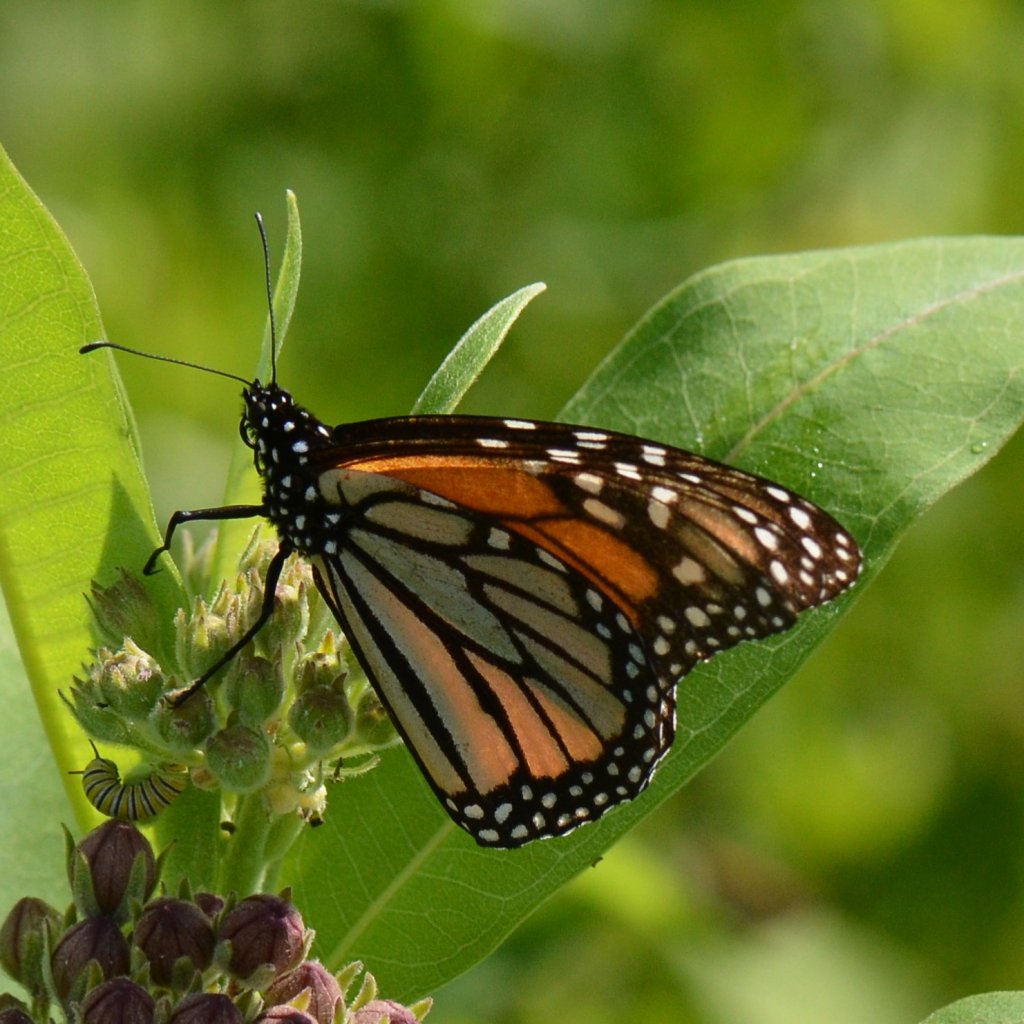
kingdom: Animalia
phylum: Arthropoda
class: Insecta
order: Lepidoptera
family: Nymphalidae
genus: Danaus
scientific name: Danaus plexippus
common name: Monarch
